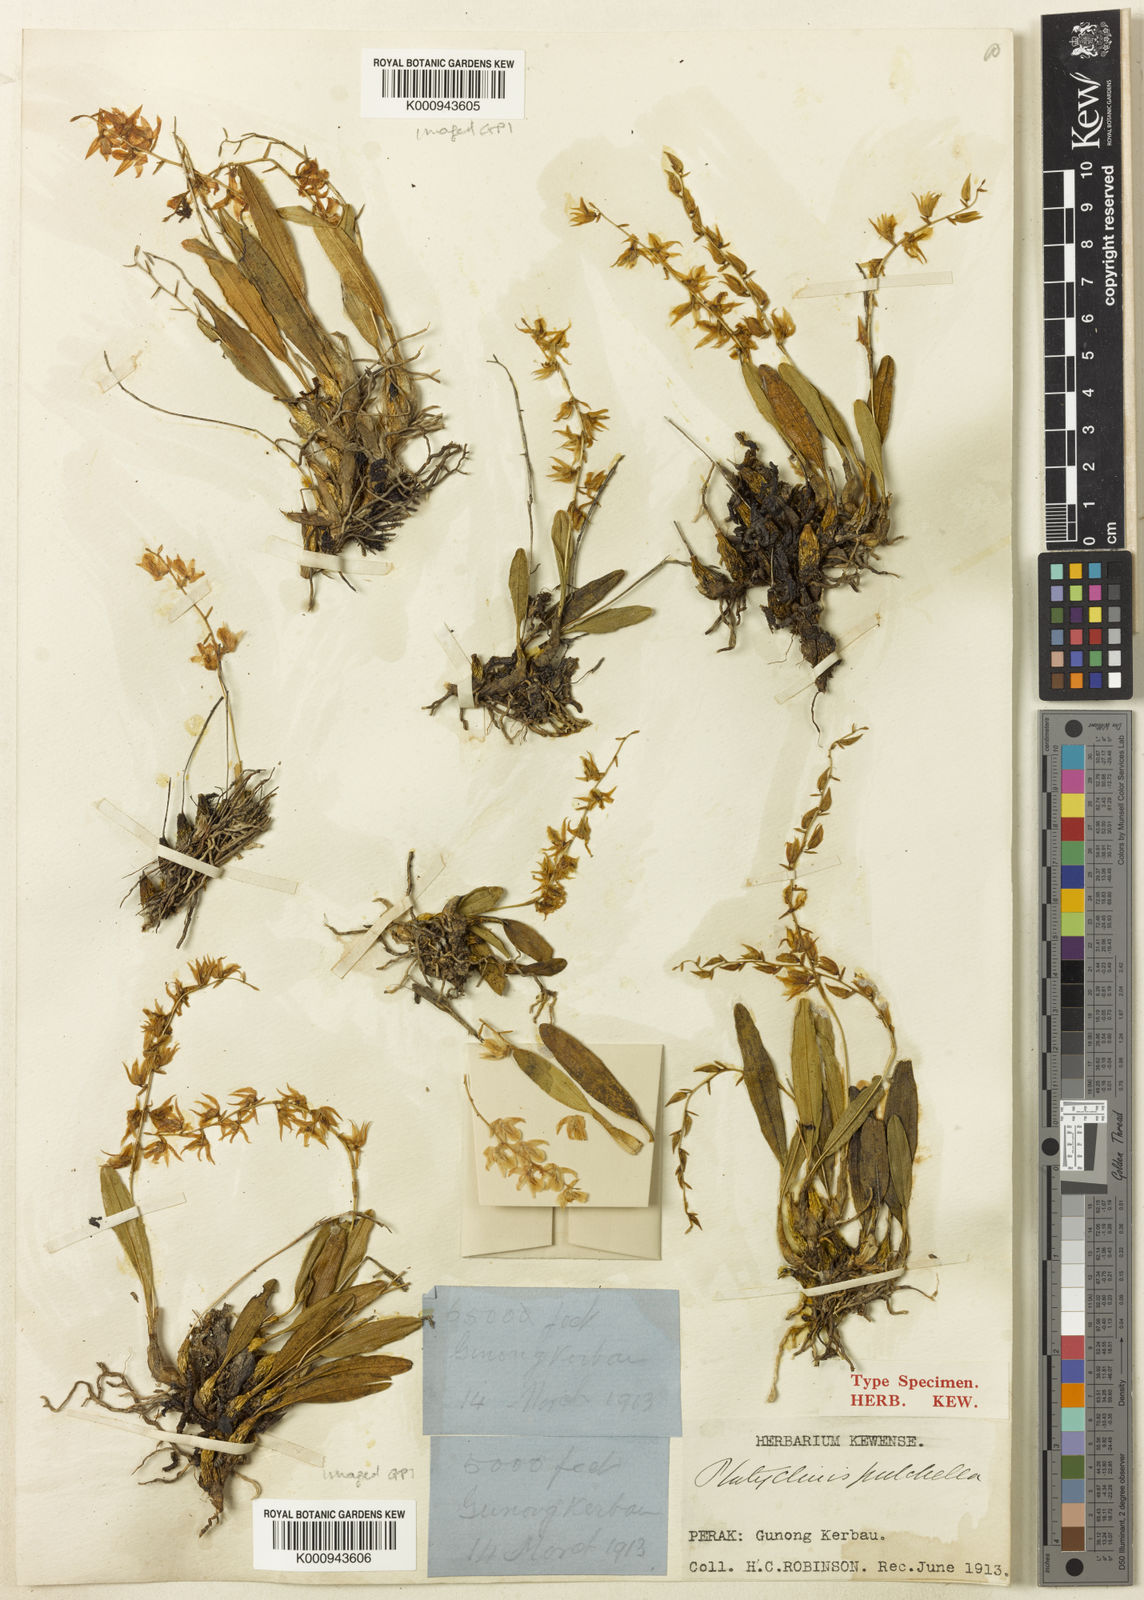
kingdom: Plantae
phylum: Tracheophyta
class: Liliopsida
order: Asparagales
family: Orchidaceae
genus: Coelogyne
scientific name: Coelogyne linearifolia
